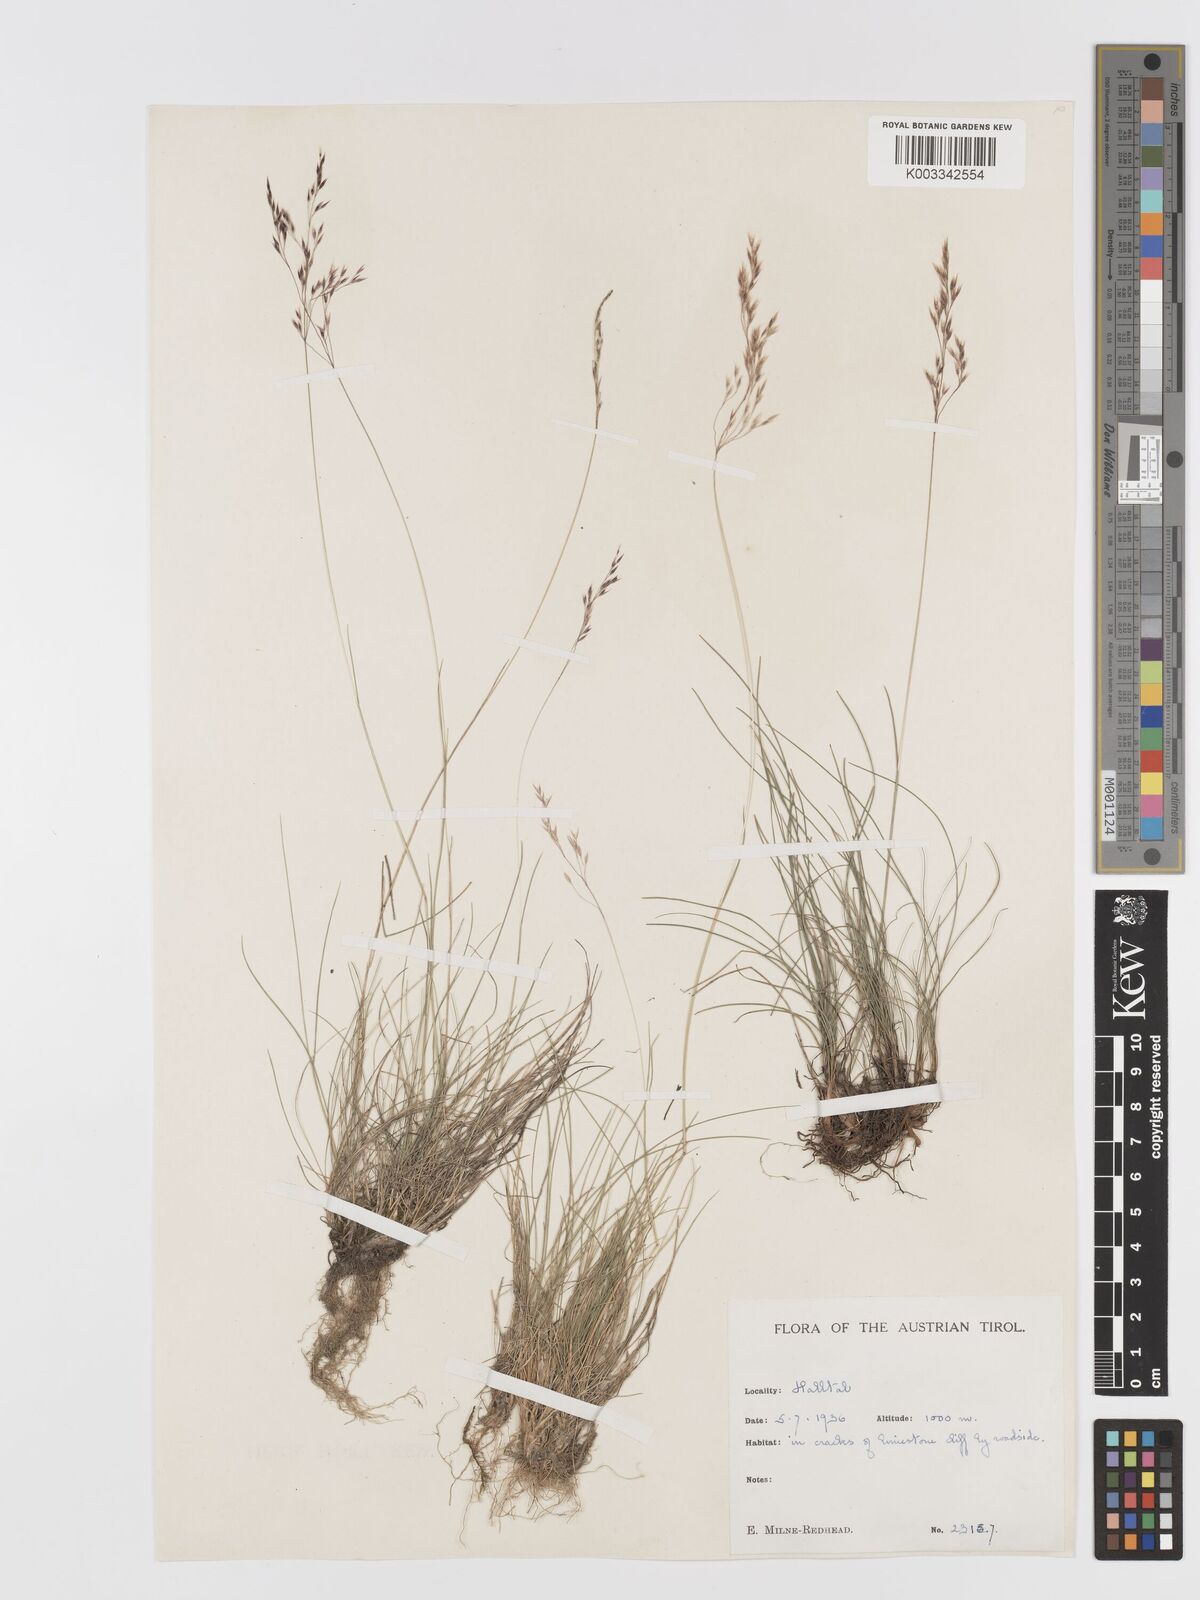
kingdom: Plantae
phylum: Tracheophyta
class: Liliopsida
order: Poales
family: Poaceae
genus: Agrostis
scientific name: Agrostis
